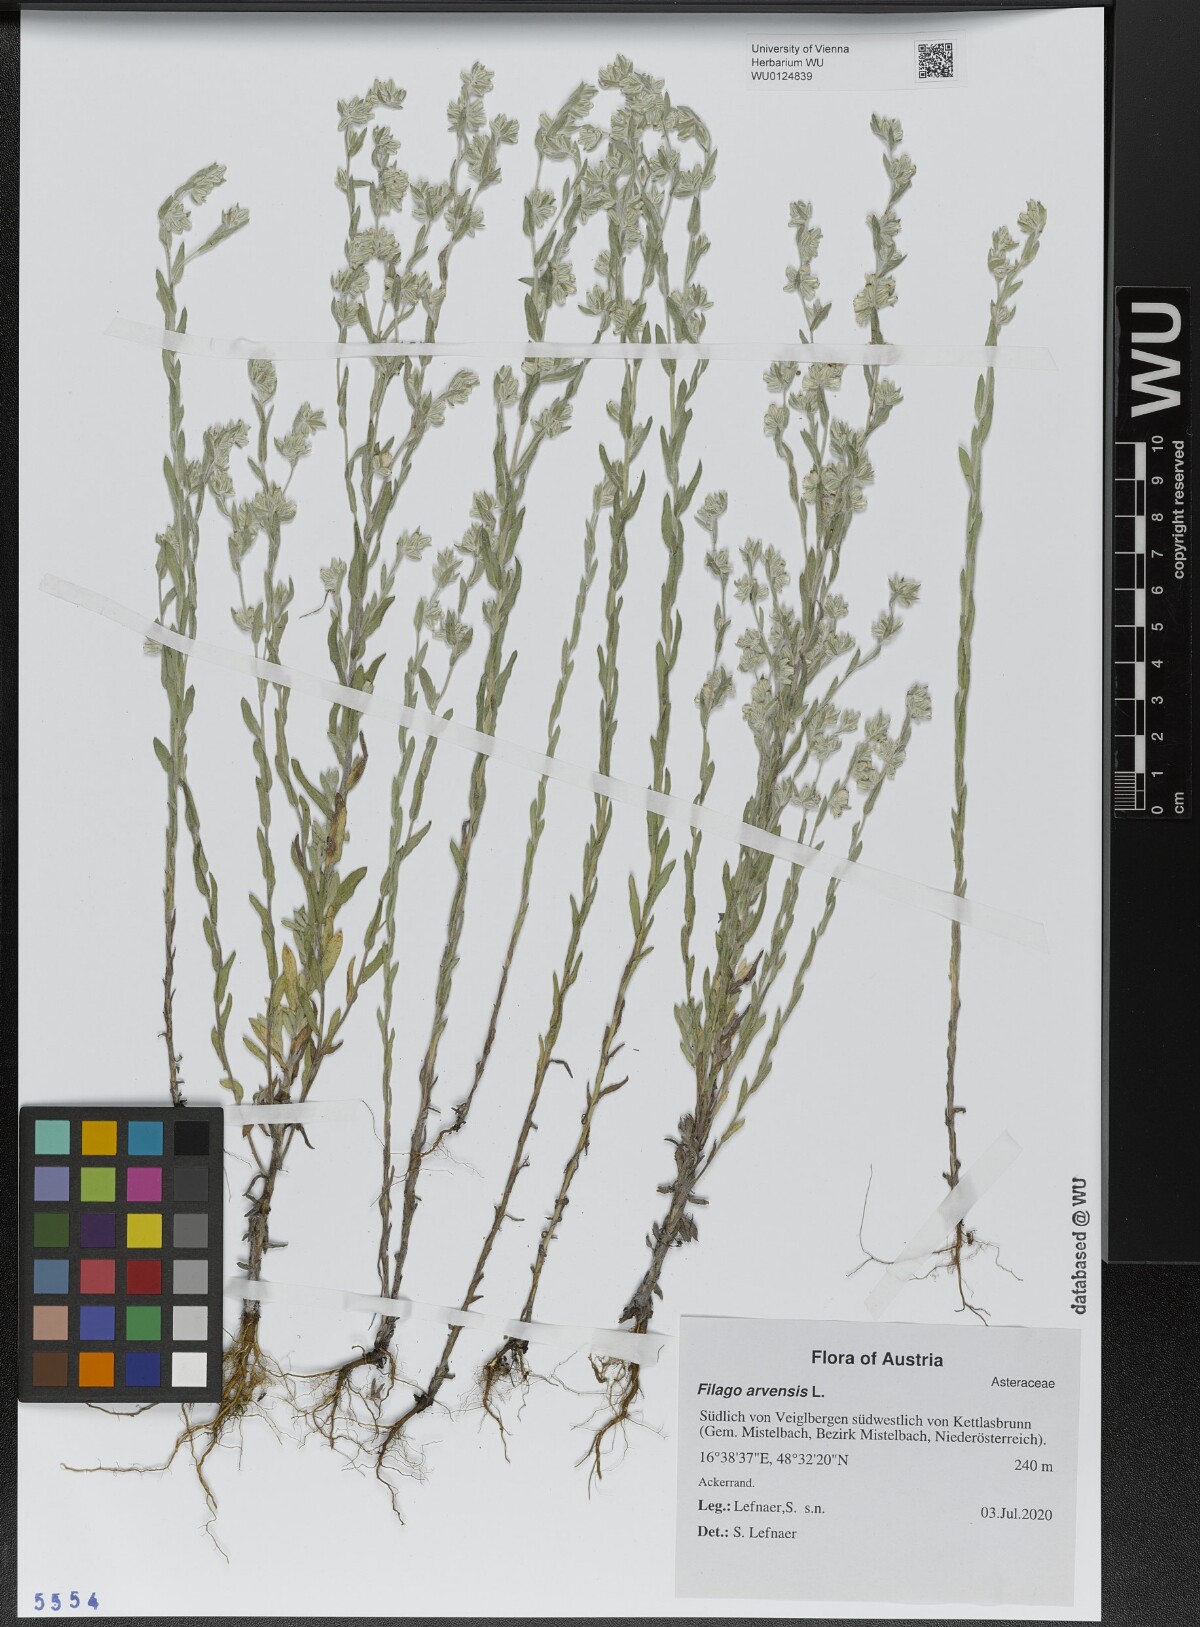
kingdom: Plantae
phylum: Tracheophyta
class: Magnoliopsida
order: Asterales
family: Asteraceae
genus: Filago
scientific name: Filago arvensis
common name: Field cudweed
